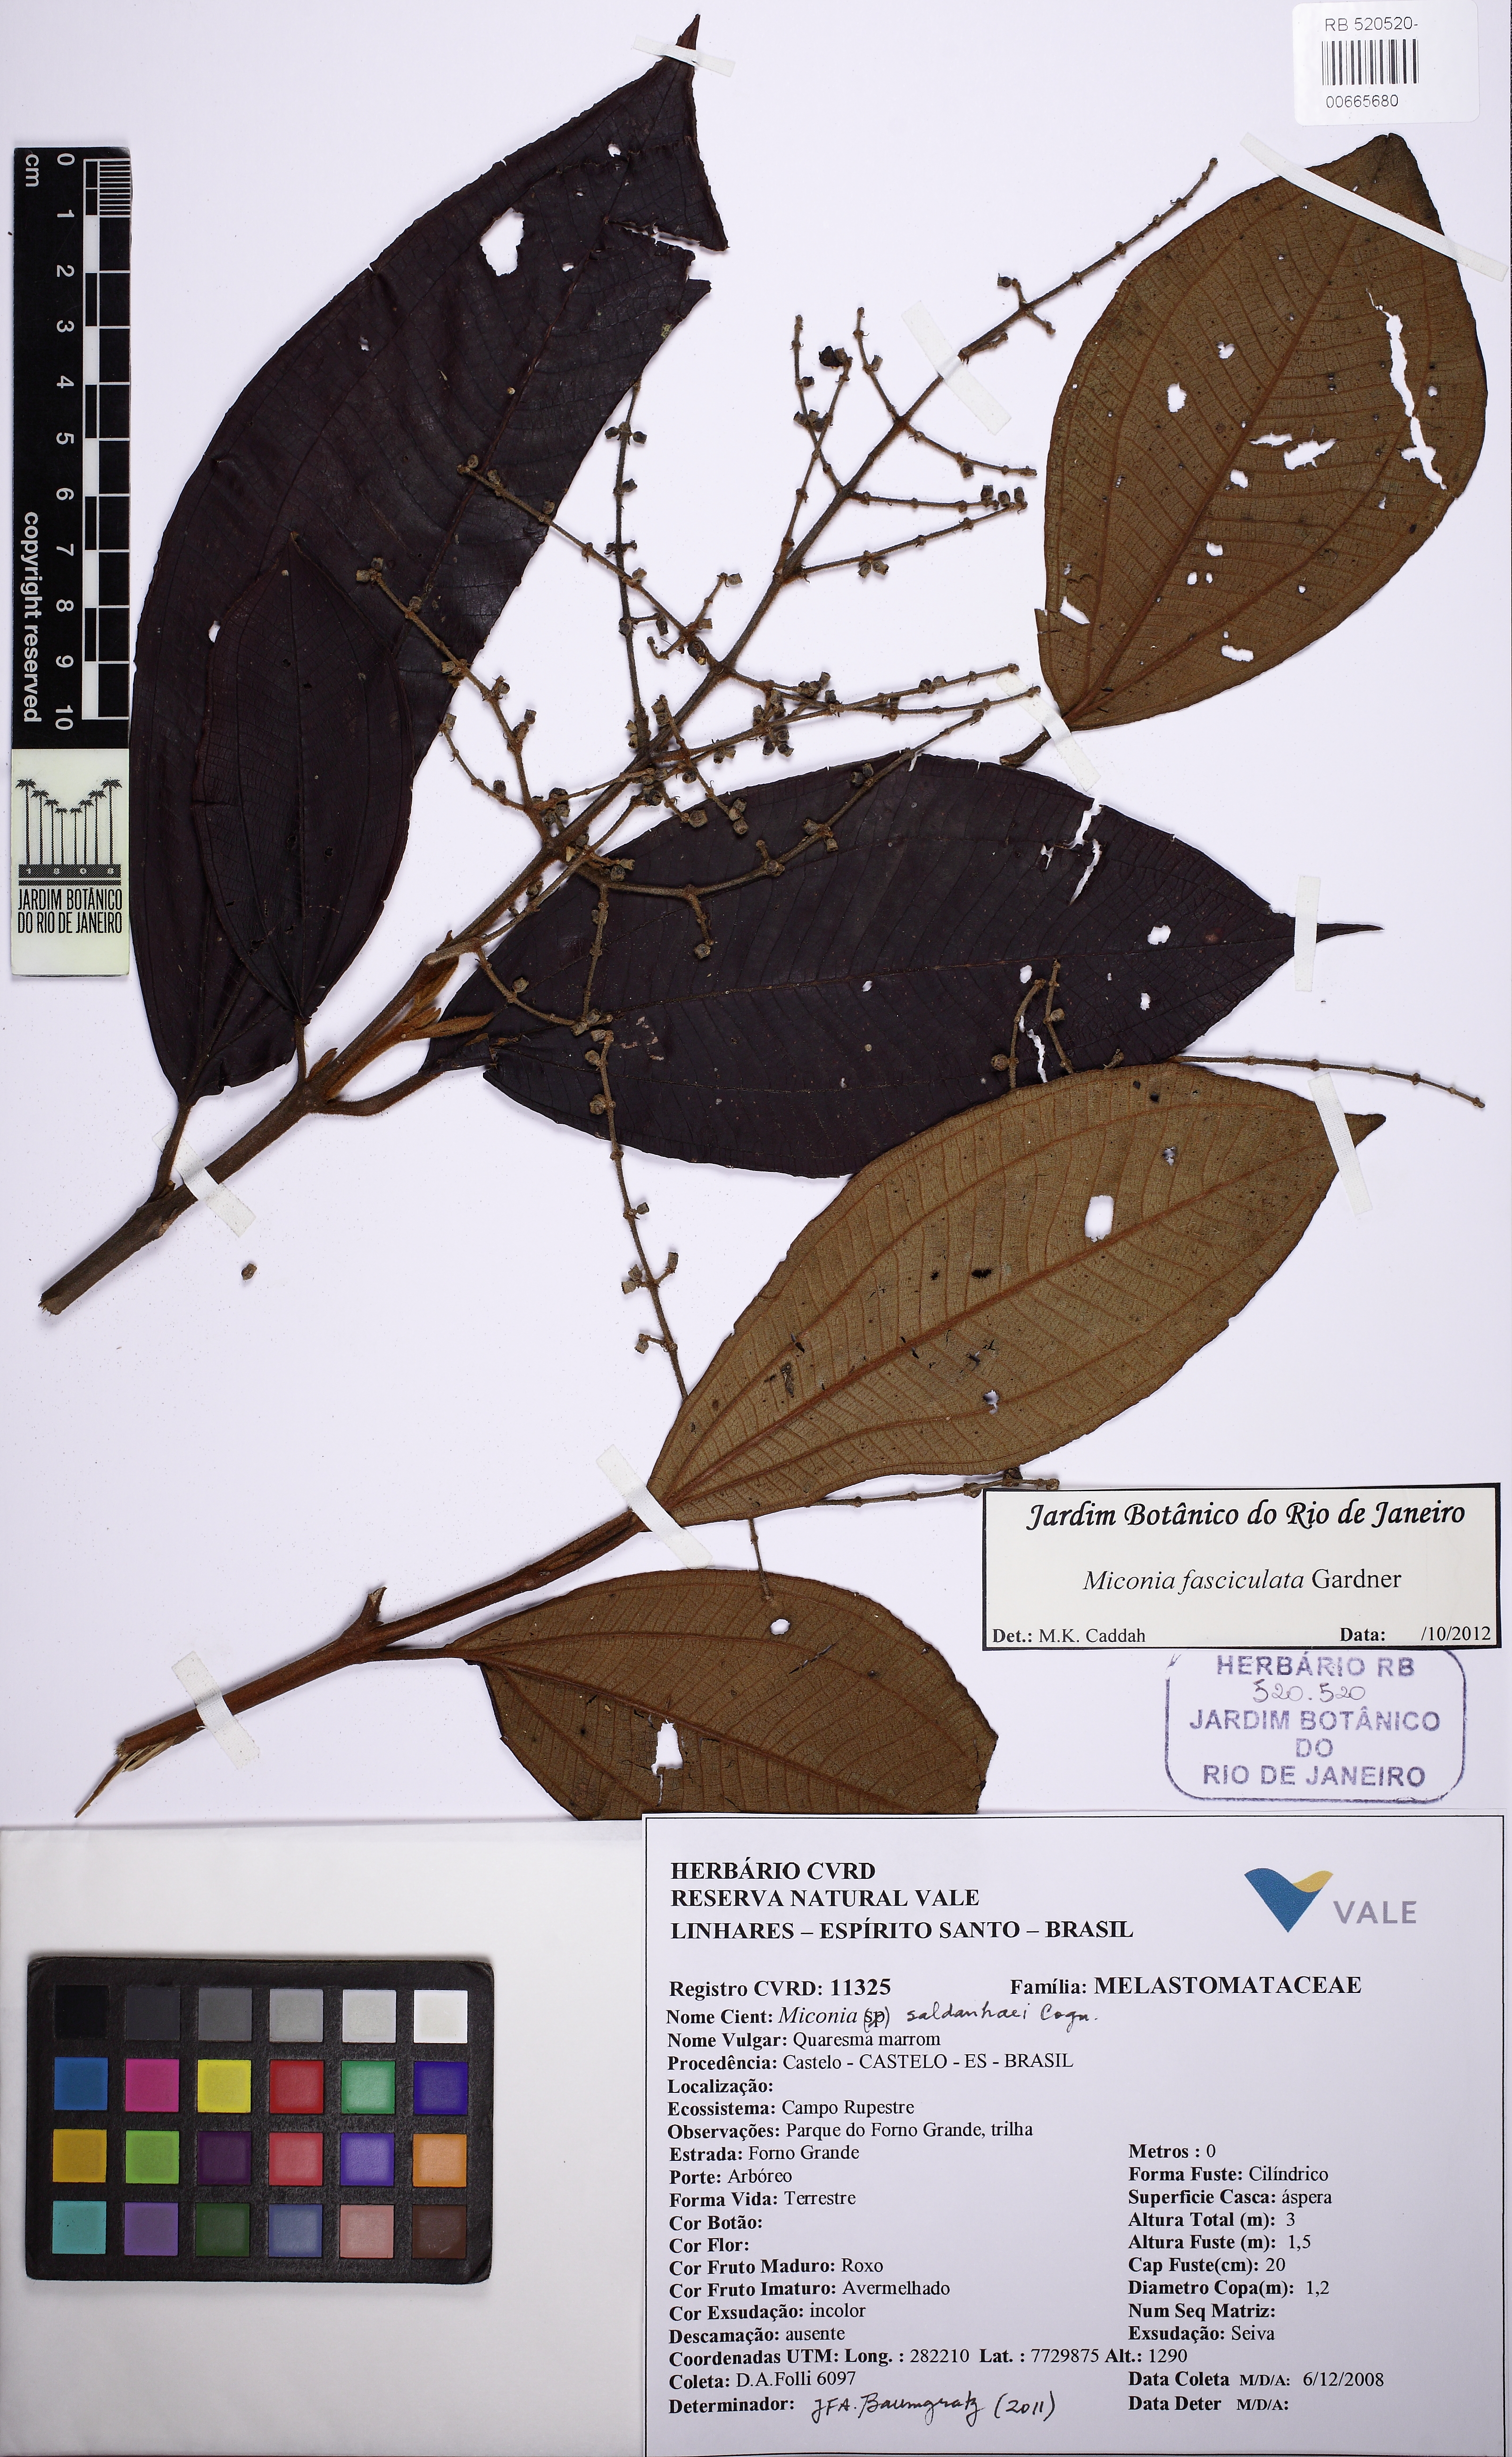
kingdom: Plantae
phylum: Tracheophyta
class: Magnoliopsida
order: Myrtales
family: Melastomataceae
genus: Miconia
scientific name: Miconia fasciculata
